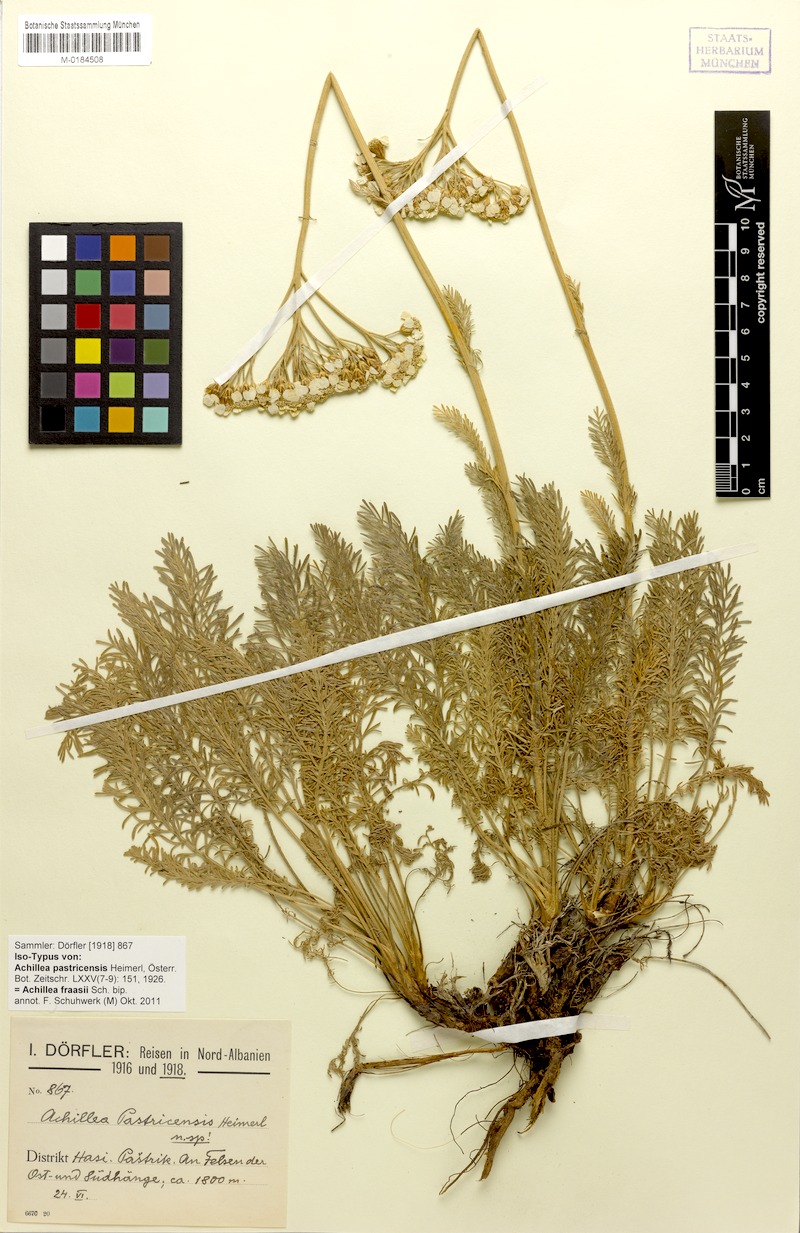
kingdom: Plantae
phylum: Tracheophyta
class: Magnoliopsida
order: Asterales
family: Asteraceae
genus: Achillea
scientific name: Achillea fraasii
